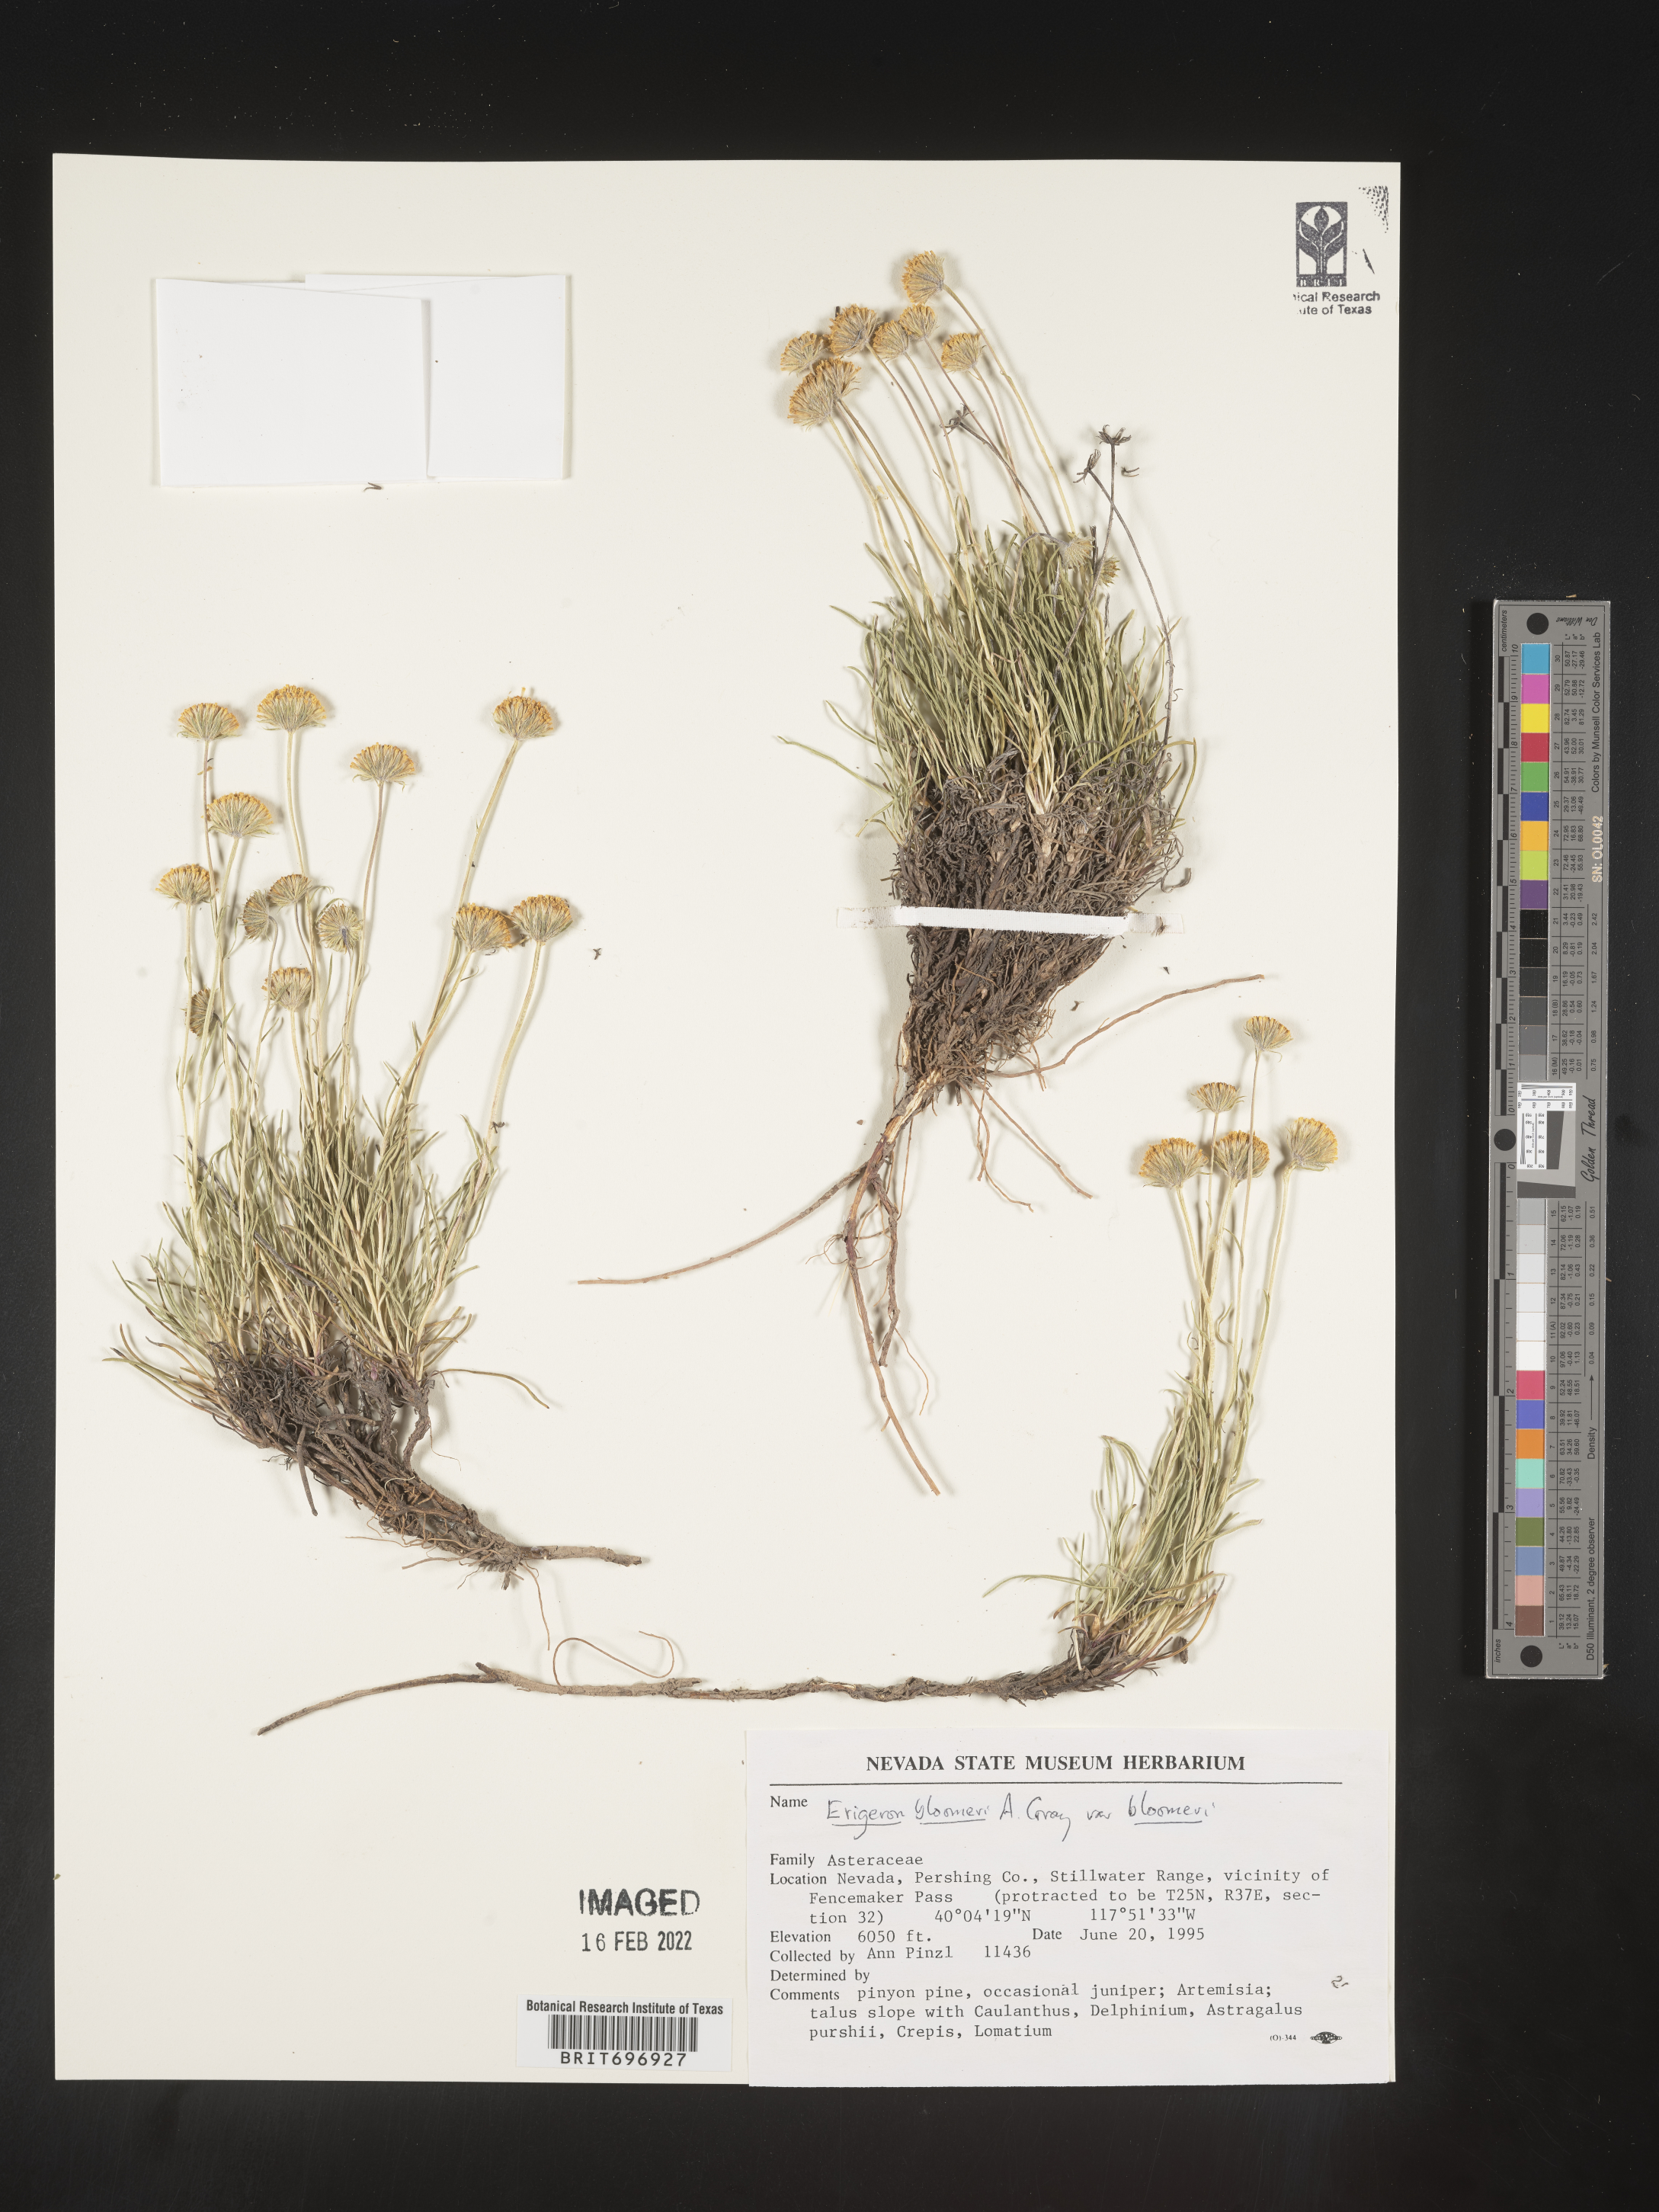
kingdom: Plantae
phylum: Tracheophyta
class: Magnoliopsida
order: Asterales
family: Asteraceae
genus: Erigeron
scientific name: Erigeron bloomeri
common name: Bloomer's fleabane
